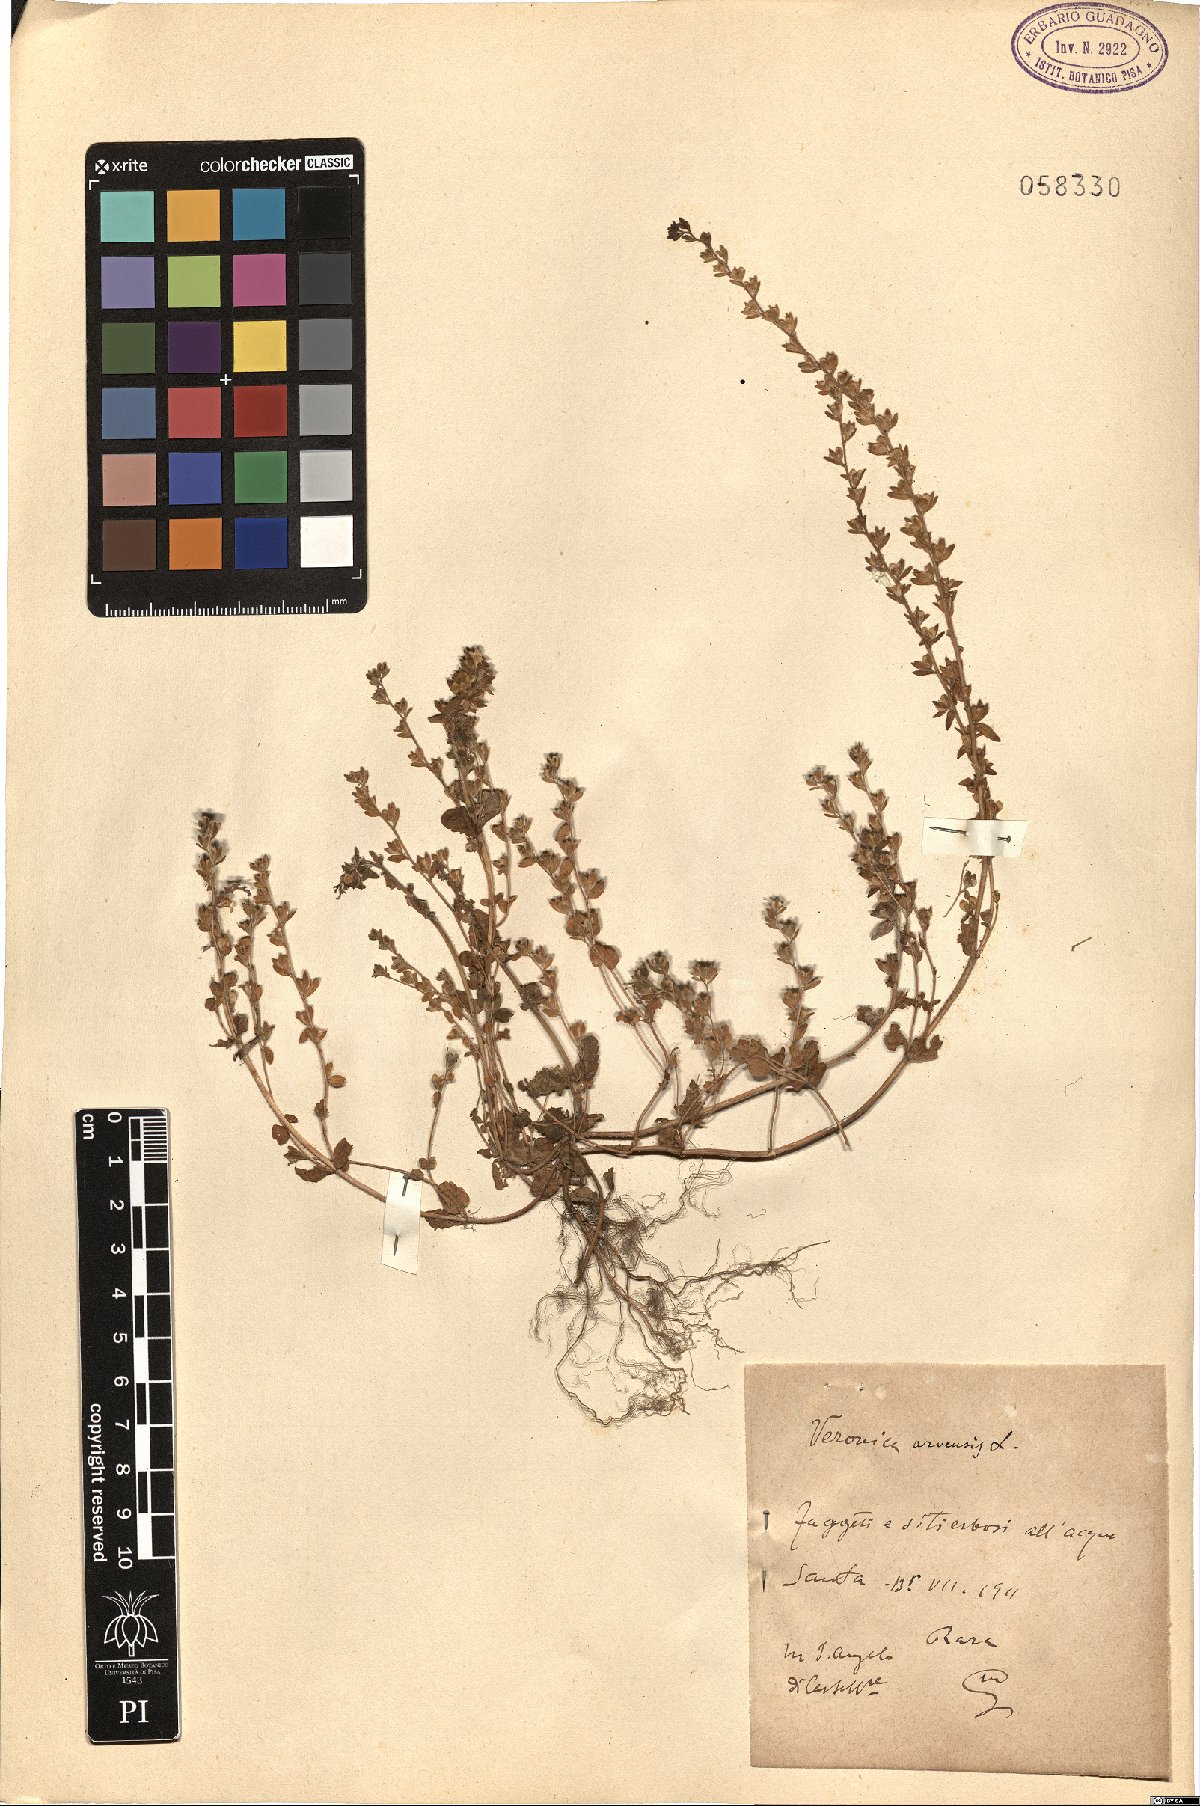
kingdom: Plantae
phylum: Tracheophyta
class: Magnoliopsida
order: Lamiales
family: Plantaginaceae
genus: Veronica
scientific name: Veronica arvensis
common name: Corn speedwell
